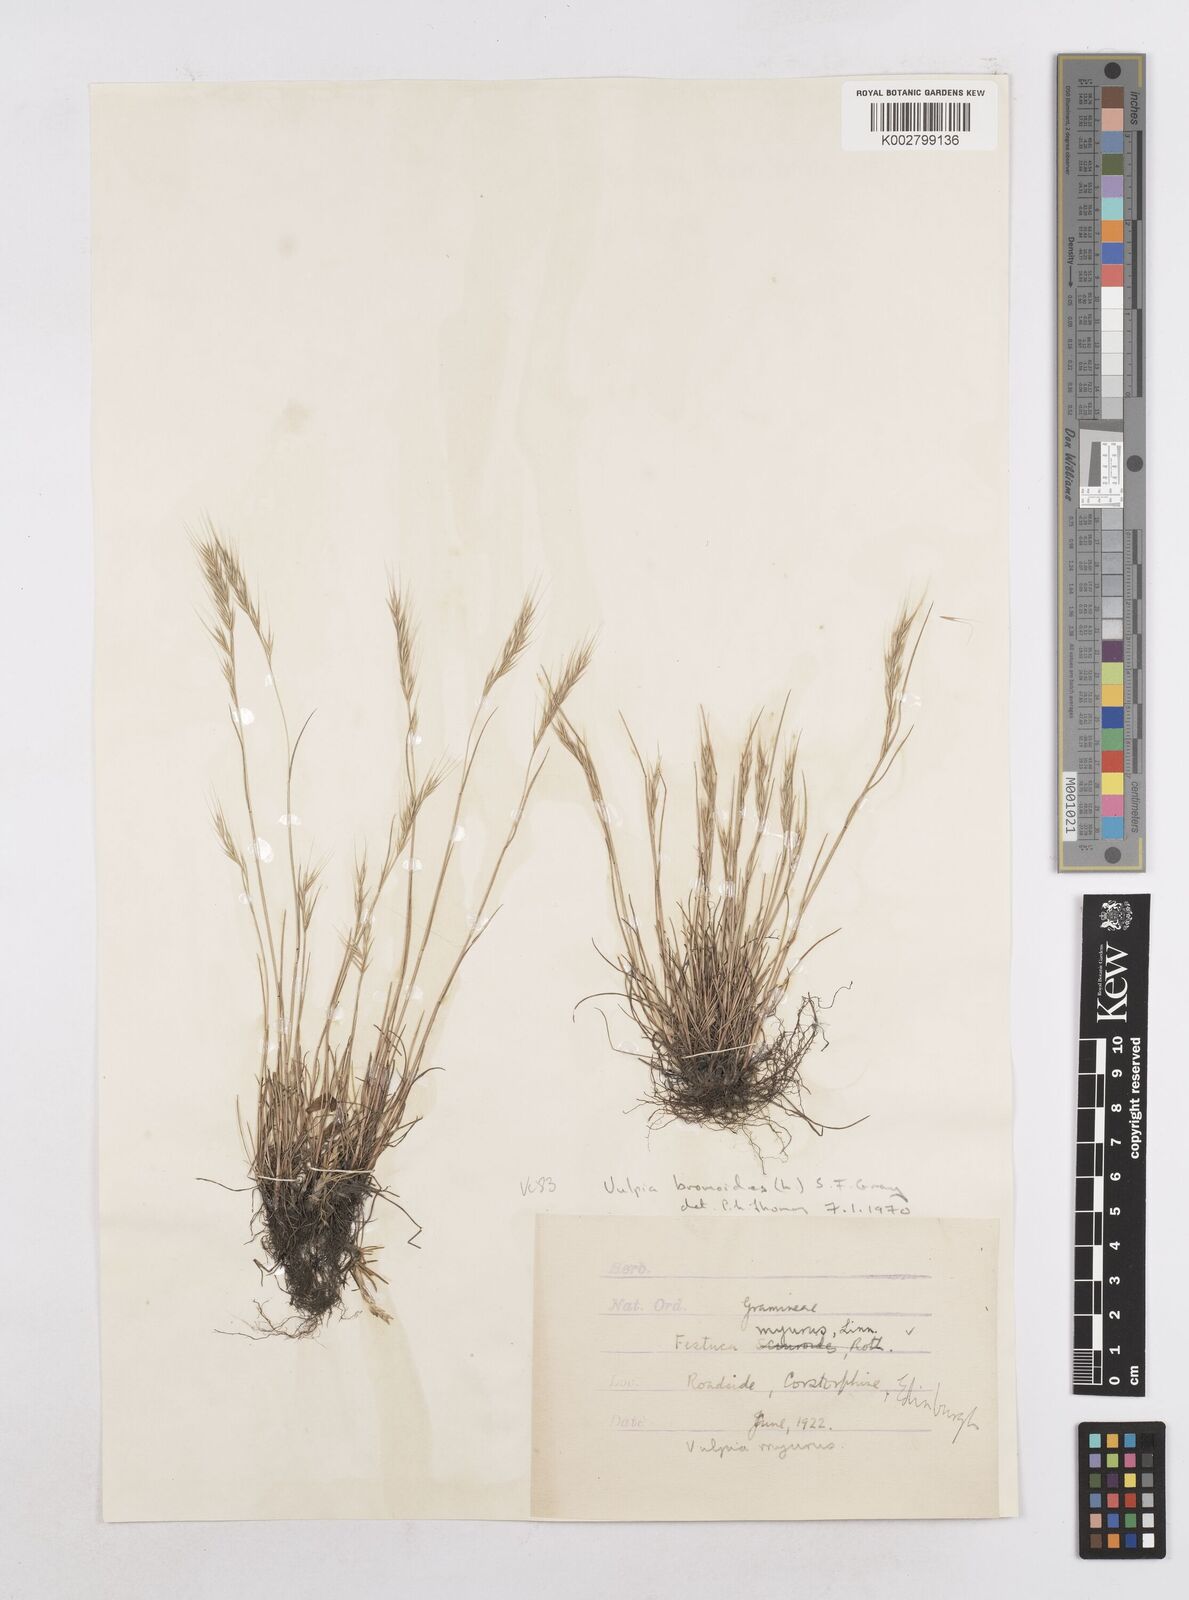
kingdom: Plantae
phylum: Tracheophyta
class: Liliopsida
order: Poales
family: Poaceae
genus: Festuca
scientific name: Festuca bromoides
